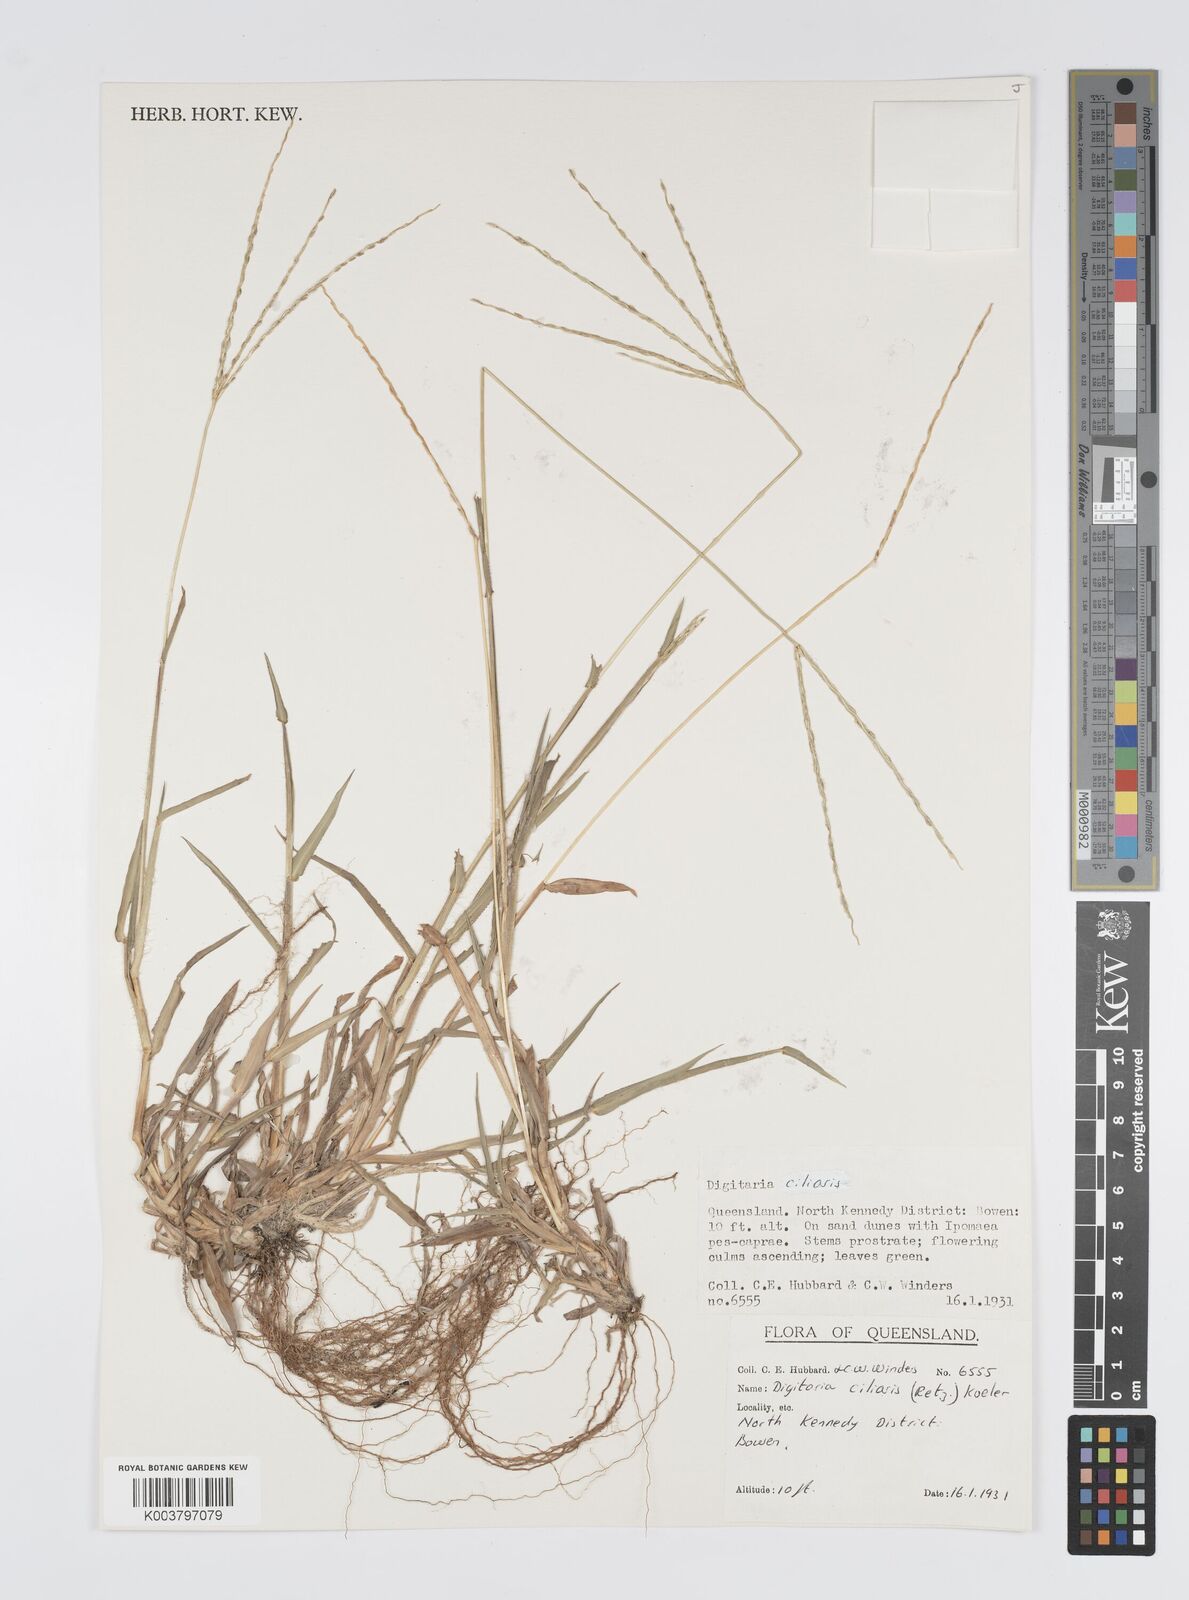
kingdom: Plantae
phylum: Tracheophyta
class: Liliopsida
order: Poales
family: Poaceae
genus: Digitaria
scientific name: Digitaria ciliaris
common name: Tropical finger-grass
